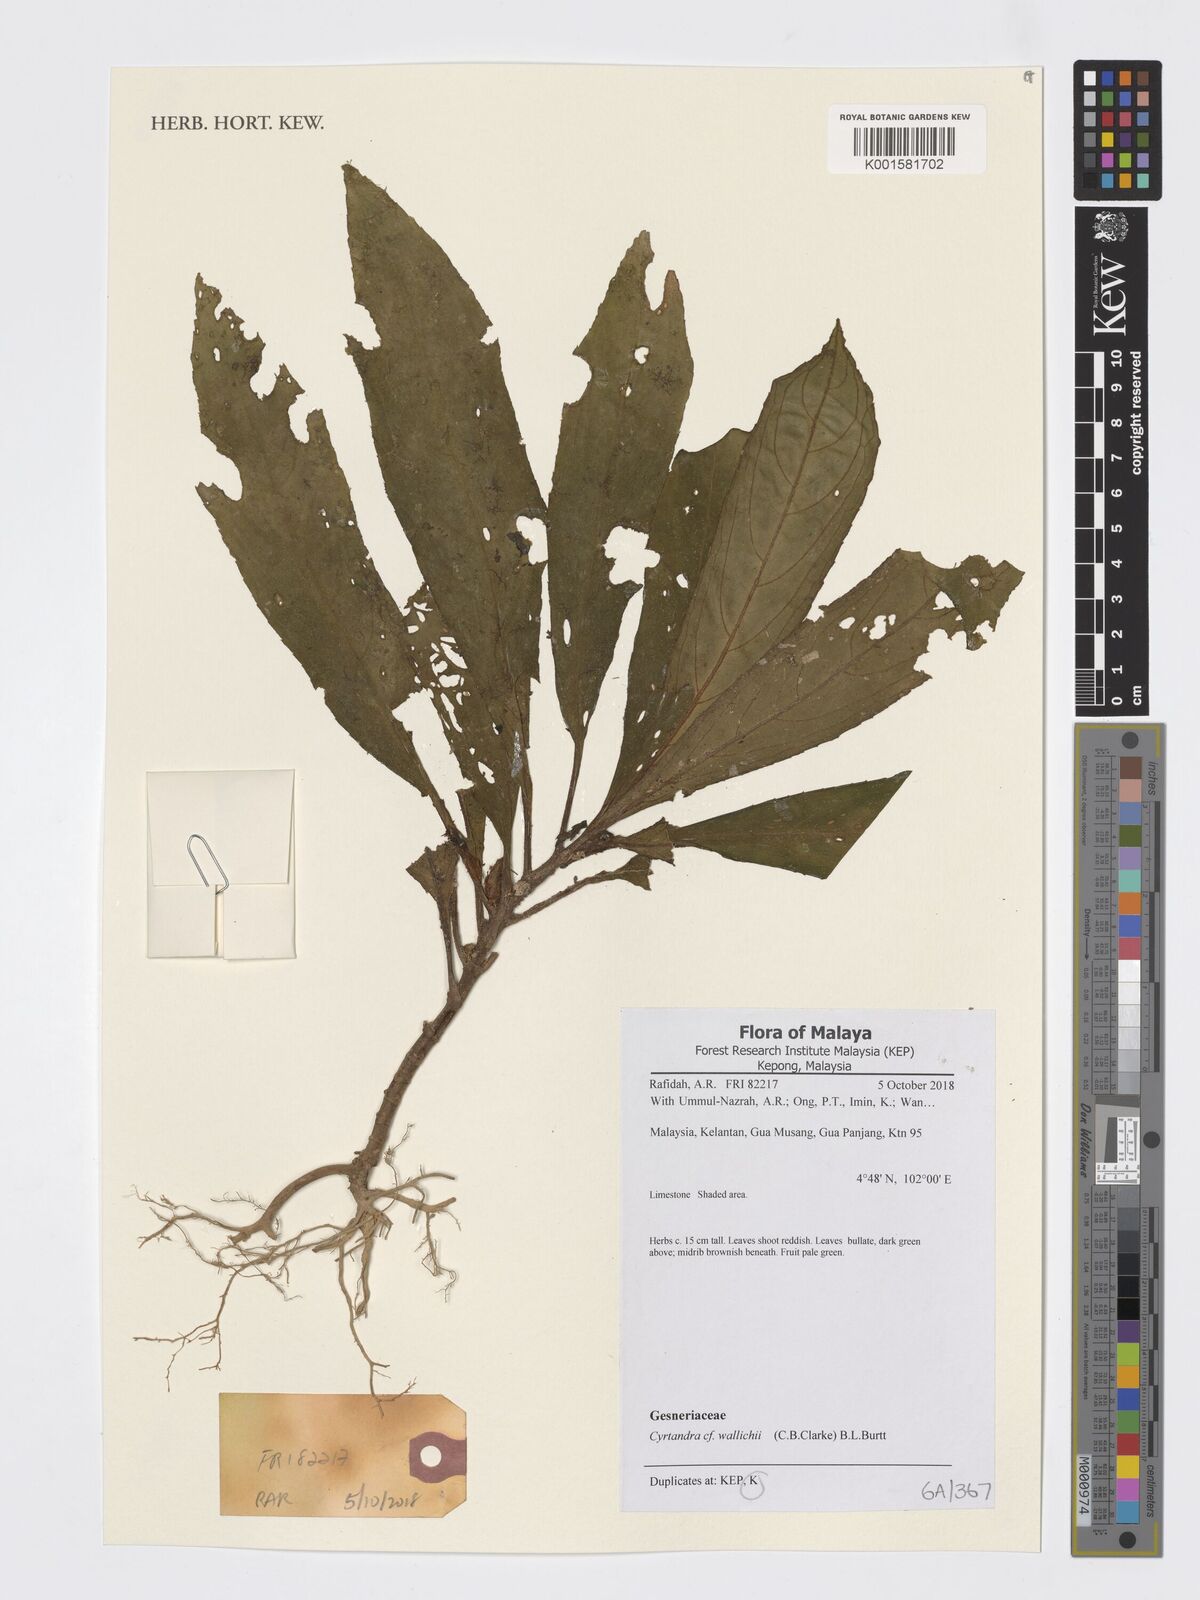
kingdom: Plantae
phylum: Tracheophyta
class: Magnoliopsida
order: Lamiales
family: Gesneriaceae
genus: Cyrtandra
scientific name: Cyrtandra wallichii
